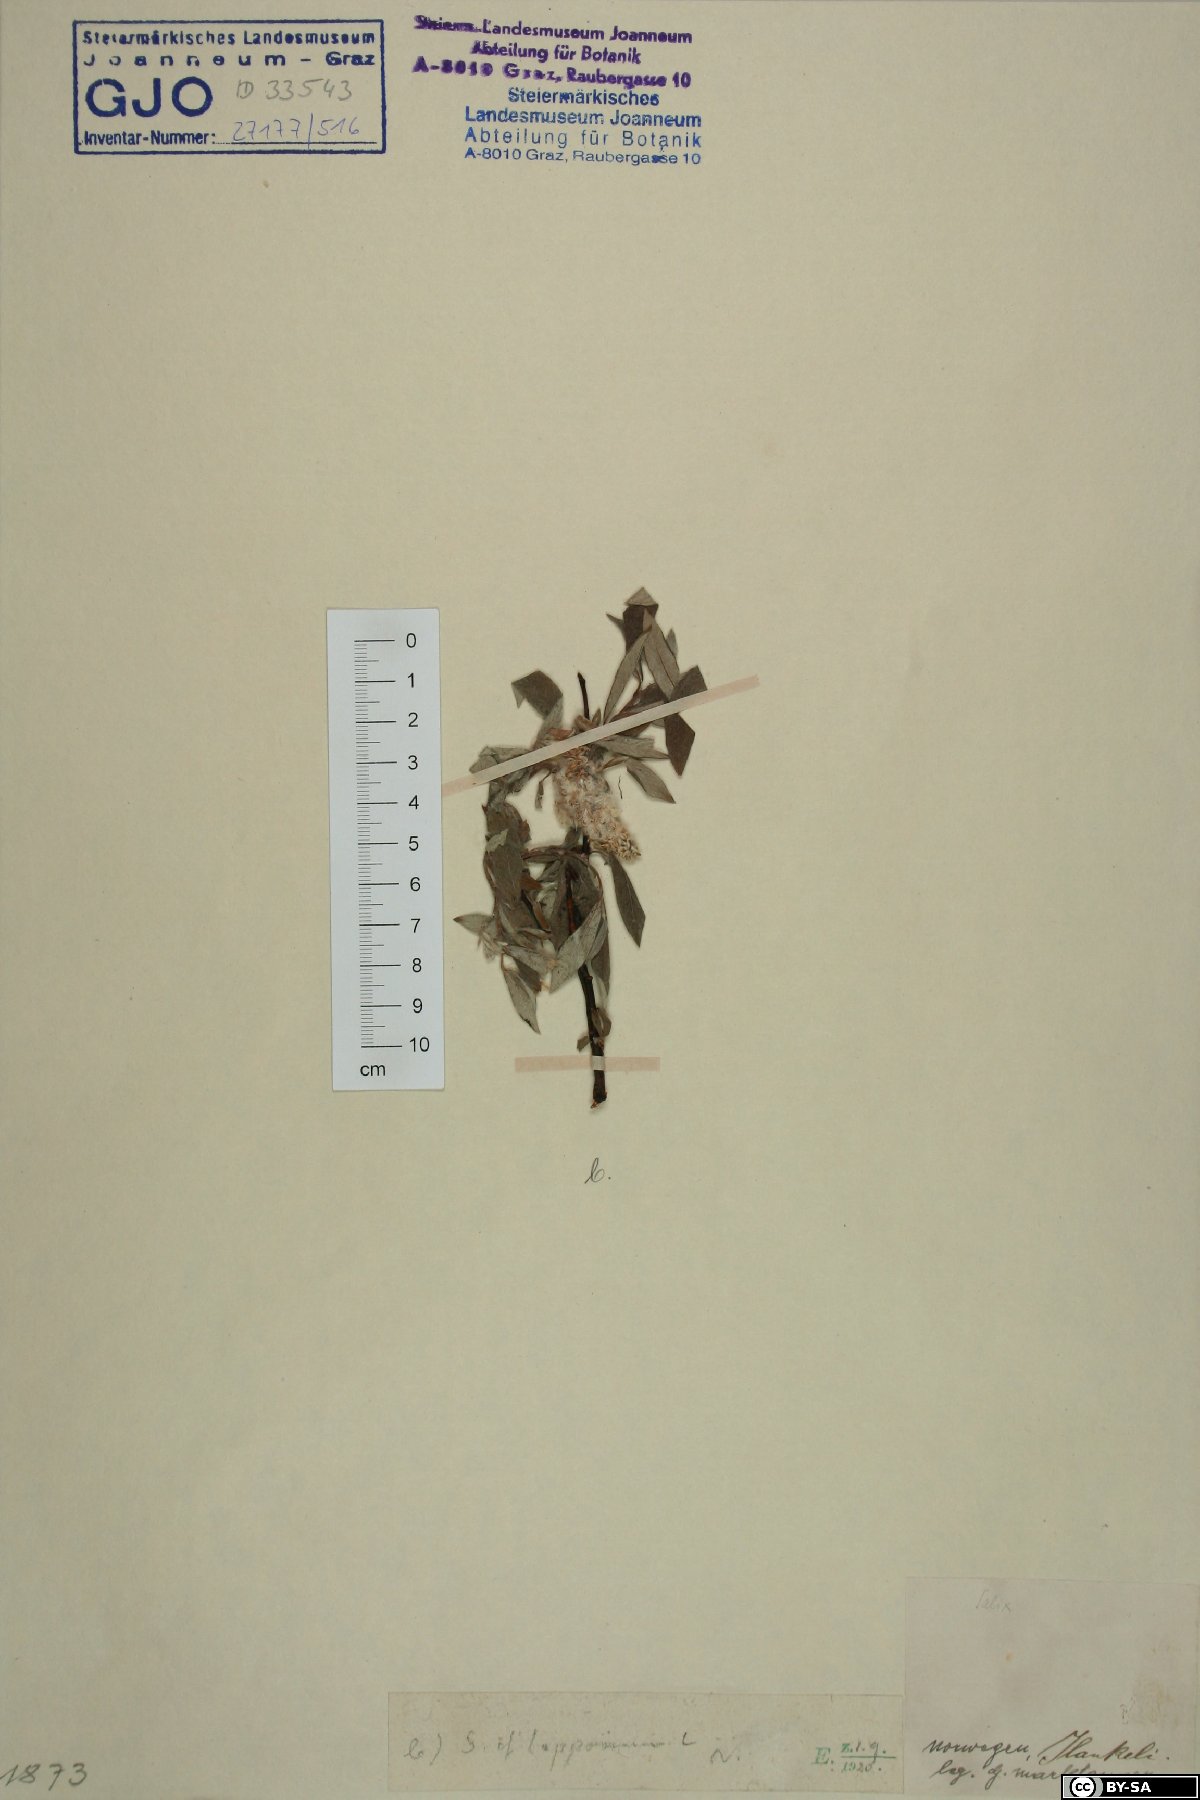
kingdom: Plantae
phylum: Tracheophyta
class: Magnoliopsida
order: Malpighiales
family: Salicaceae
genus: Salix
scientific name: Salix lapponum
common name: Downy willow
